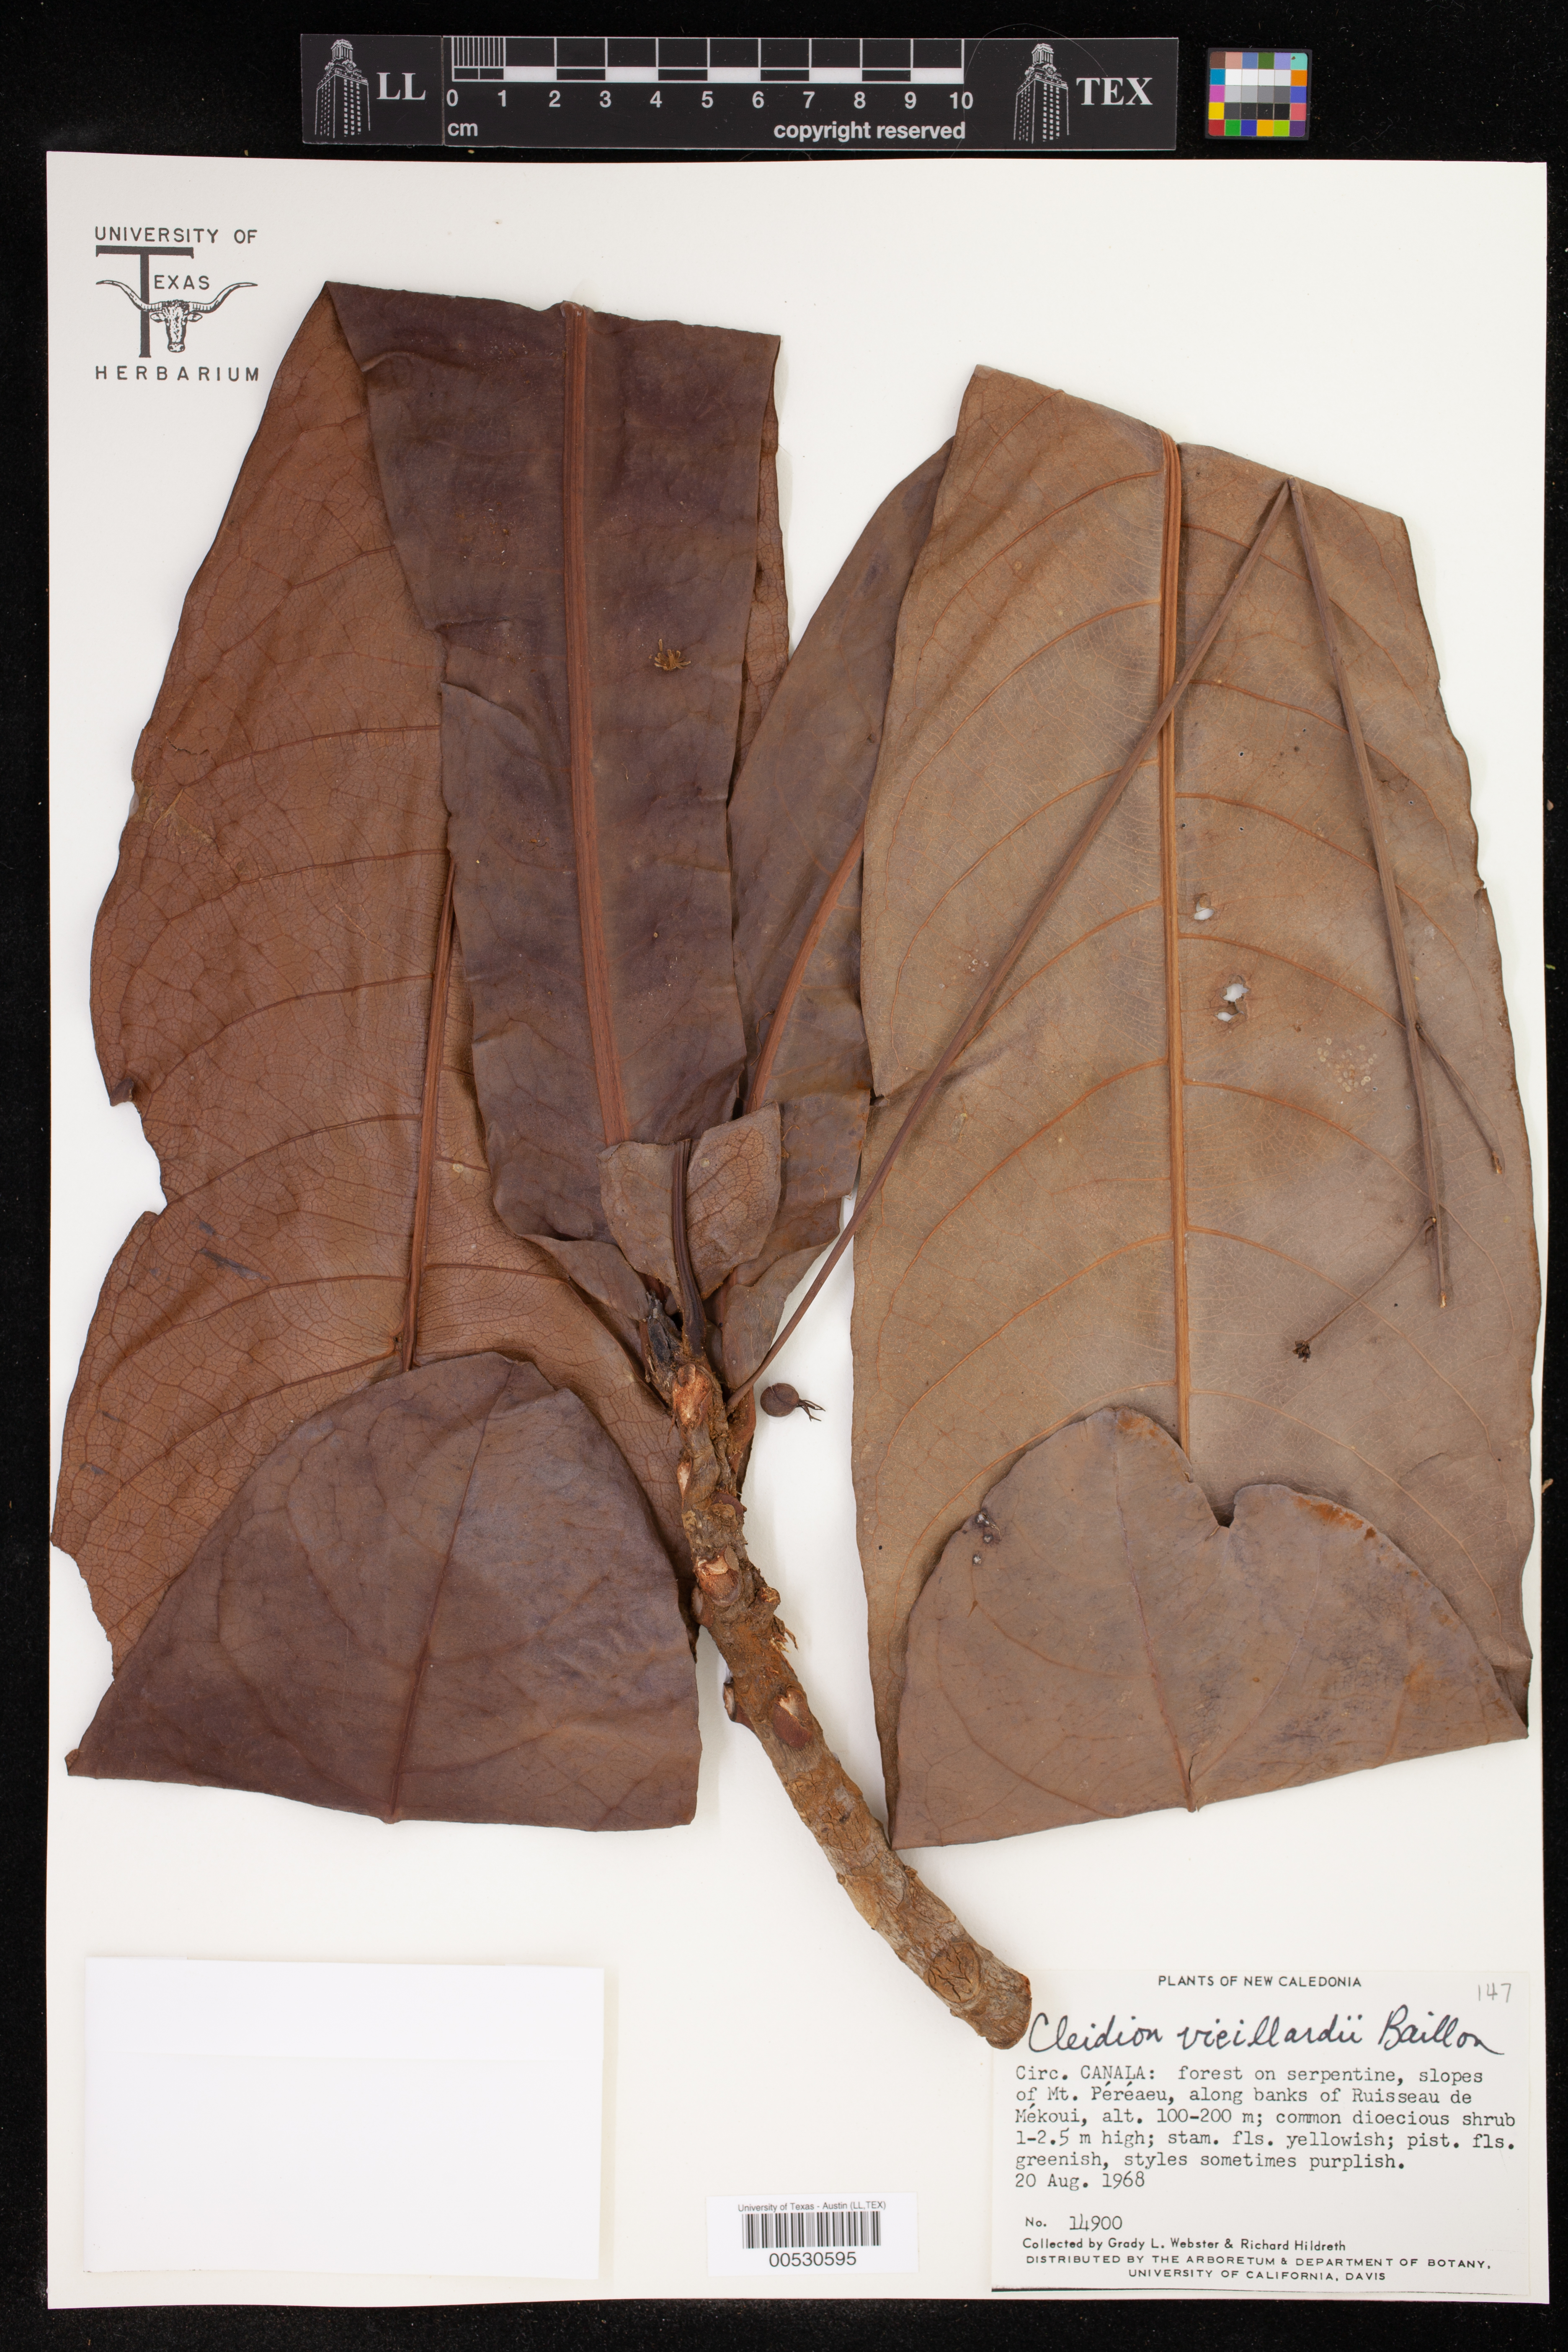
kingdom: Plantae
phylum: Tracheophyta
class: Magnoliopsida
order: Malpighiales
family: Euphorbiaceae
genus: Cleidion
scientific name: Cleidion vieillardii
